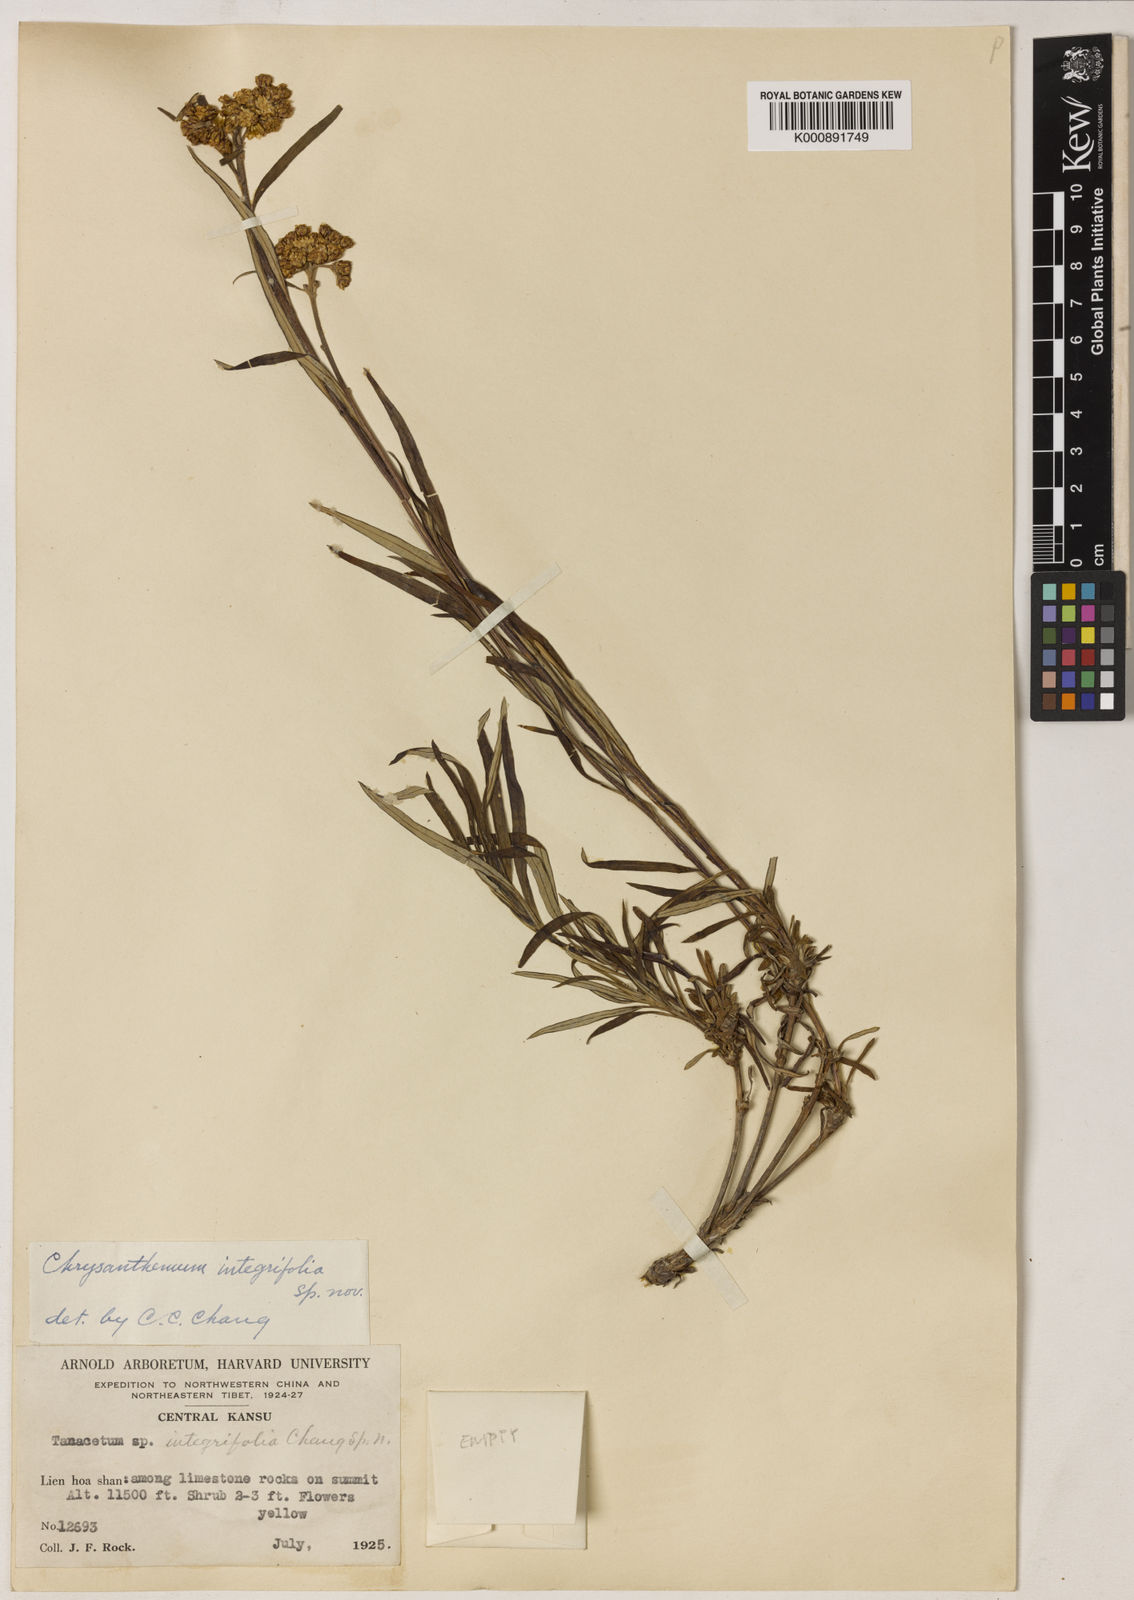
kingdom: Plantae
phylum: Tracheophyta
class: Magnoliopsida
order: Asterales
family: Asteraceae
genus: Arctanthemum
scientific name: Arctanthemum integrifolium
